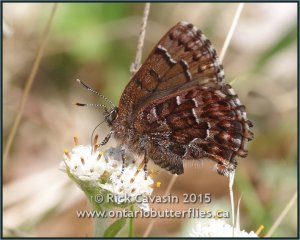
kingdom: Animalia
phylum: Arthropoda
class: Insecta
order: Lepidoptera
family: Lycaenidae
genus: Incisalia
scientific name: Incisalia niphon
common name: Eastern Pine Elfin
